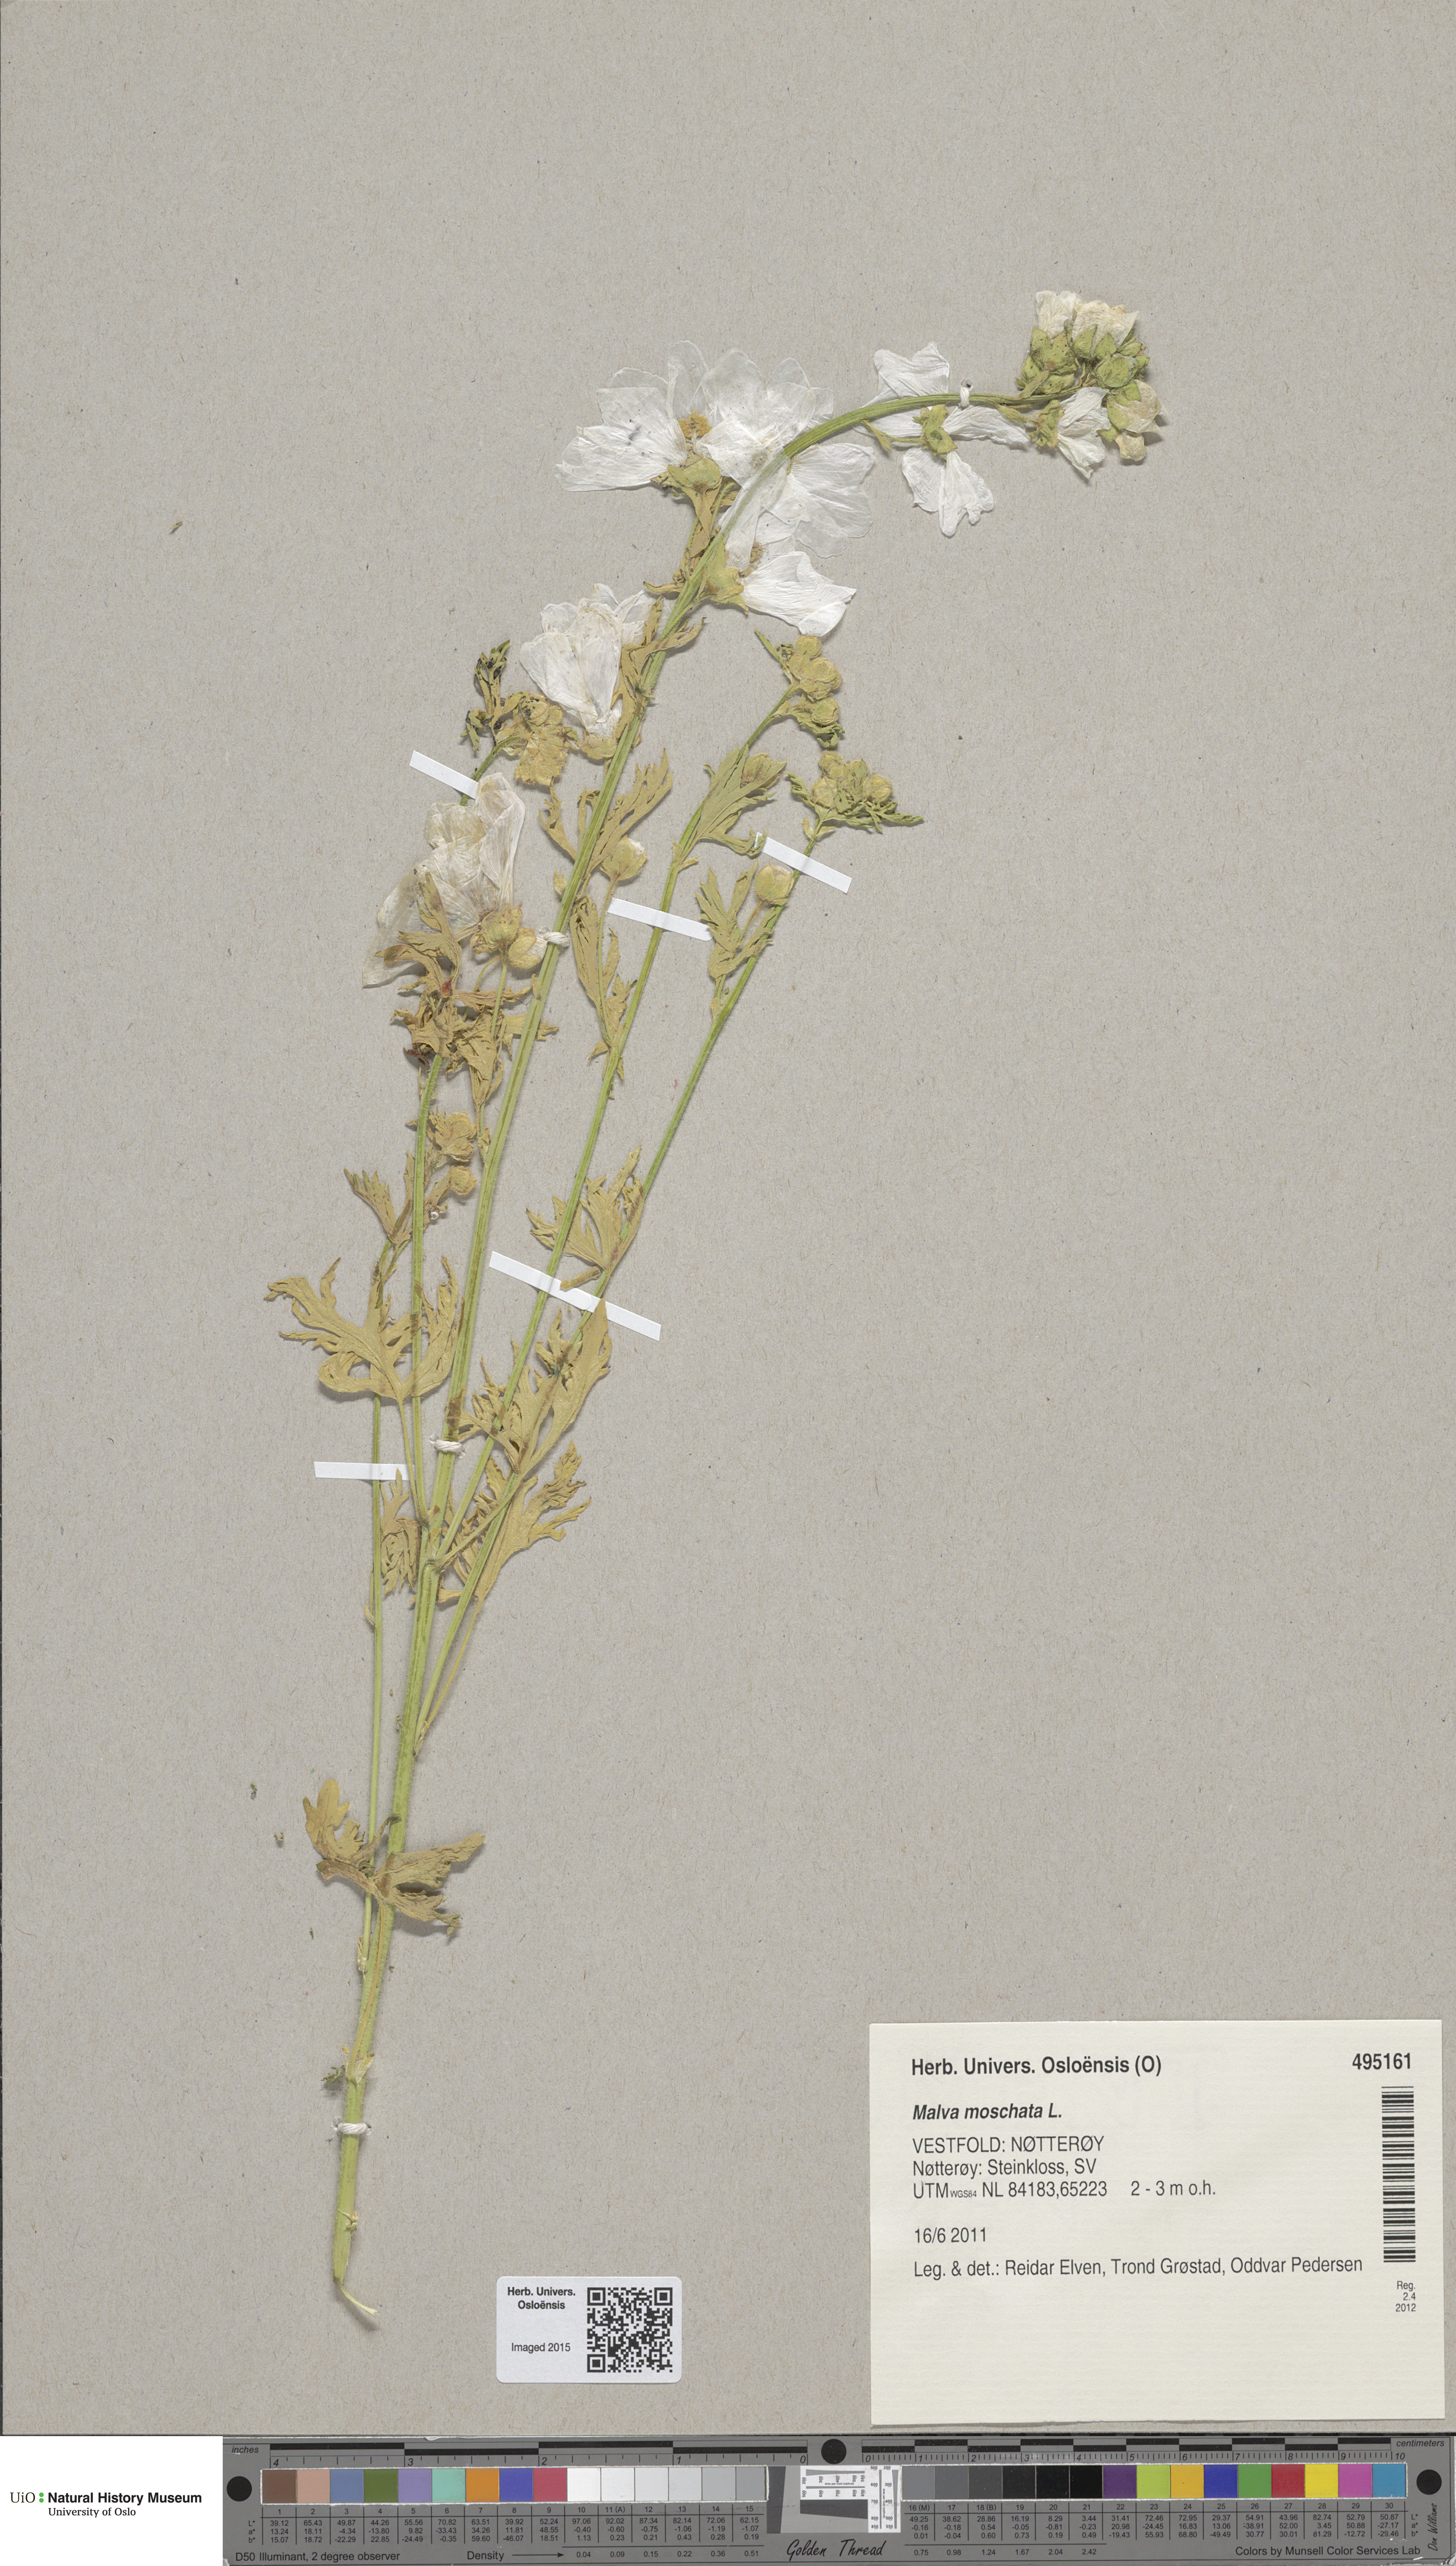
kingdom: Plantae
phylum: Tracheophyta
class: Magnoliopsida
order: Malvales
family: Malvaceae
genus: Malva
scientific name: Malva moschata
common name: Musk mallow
